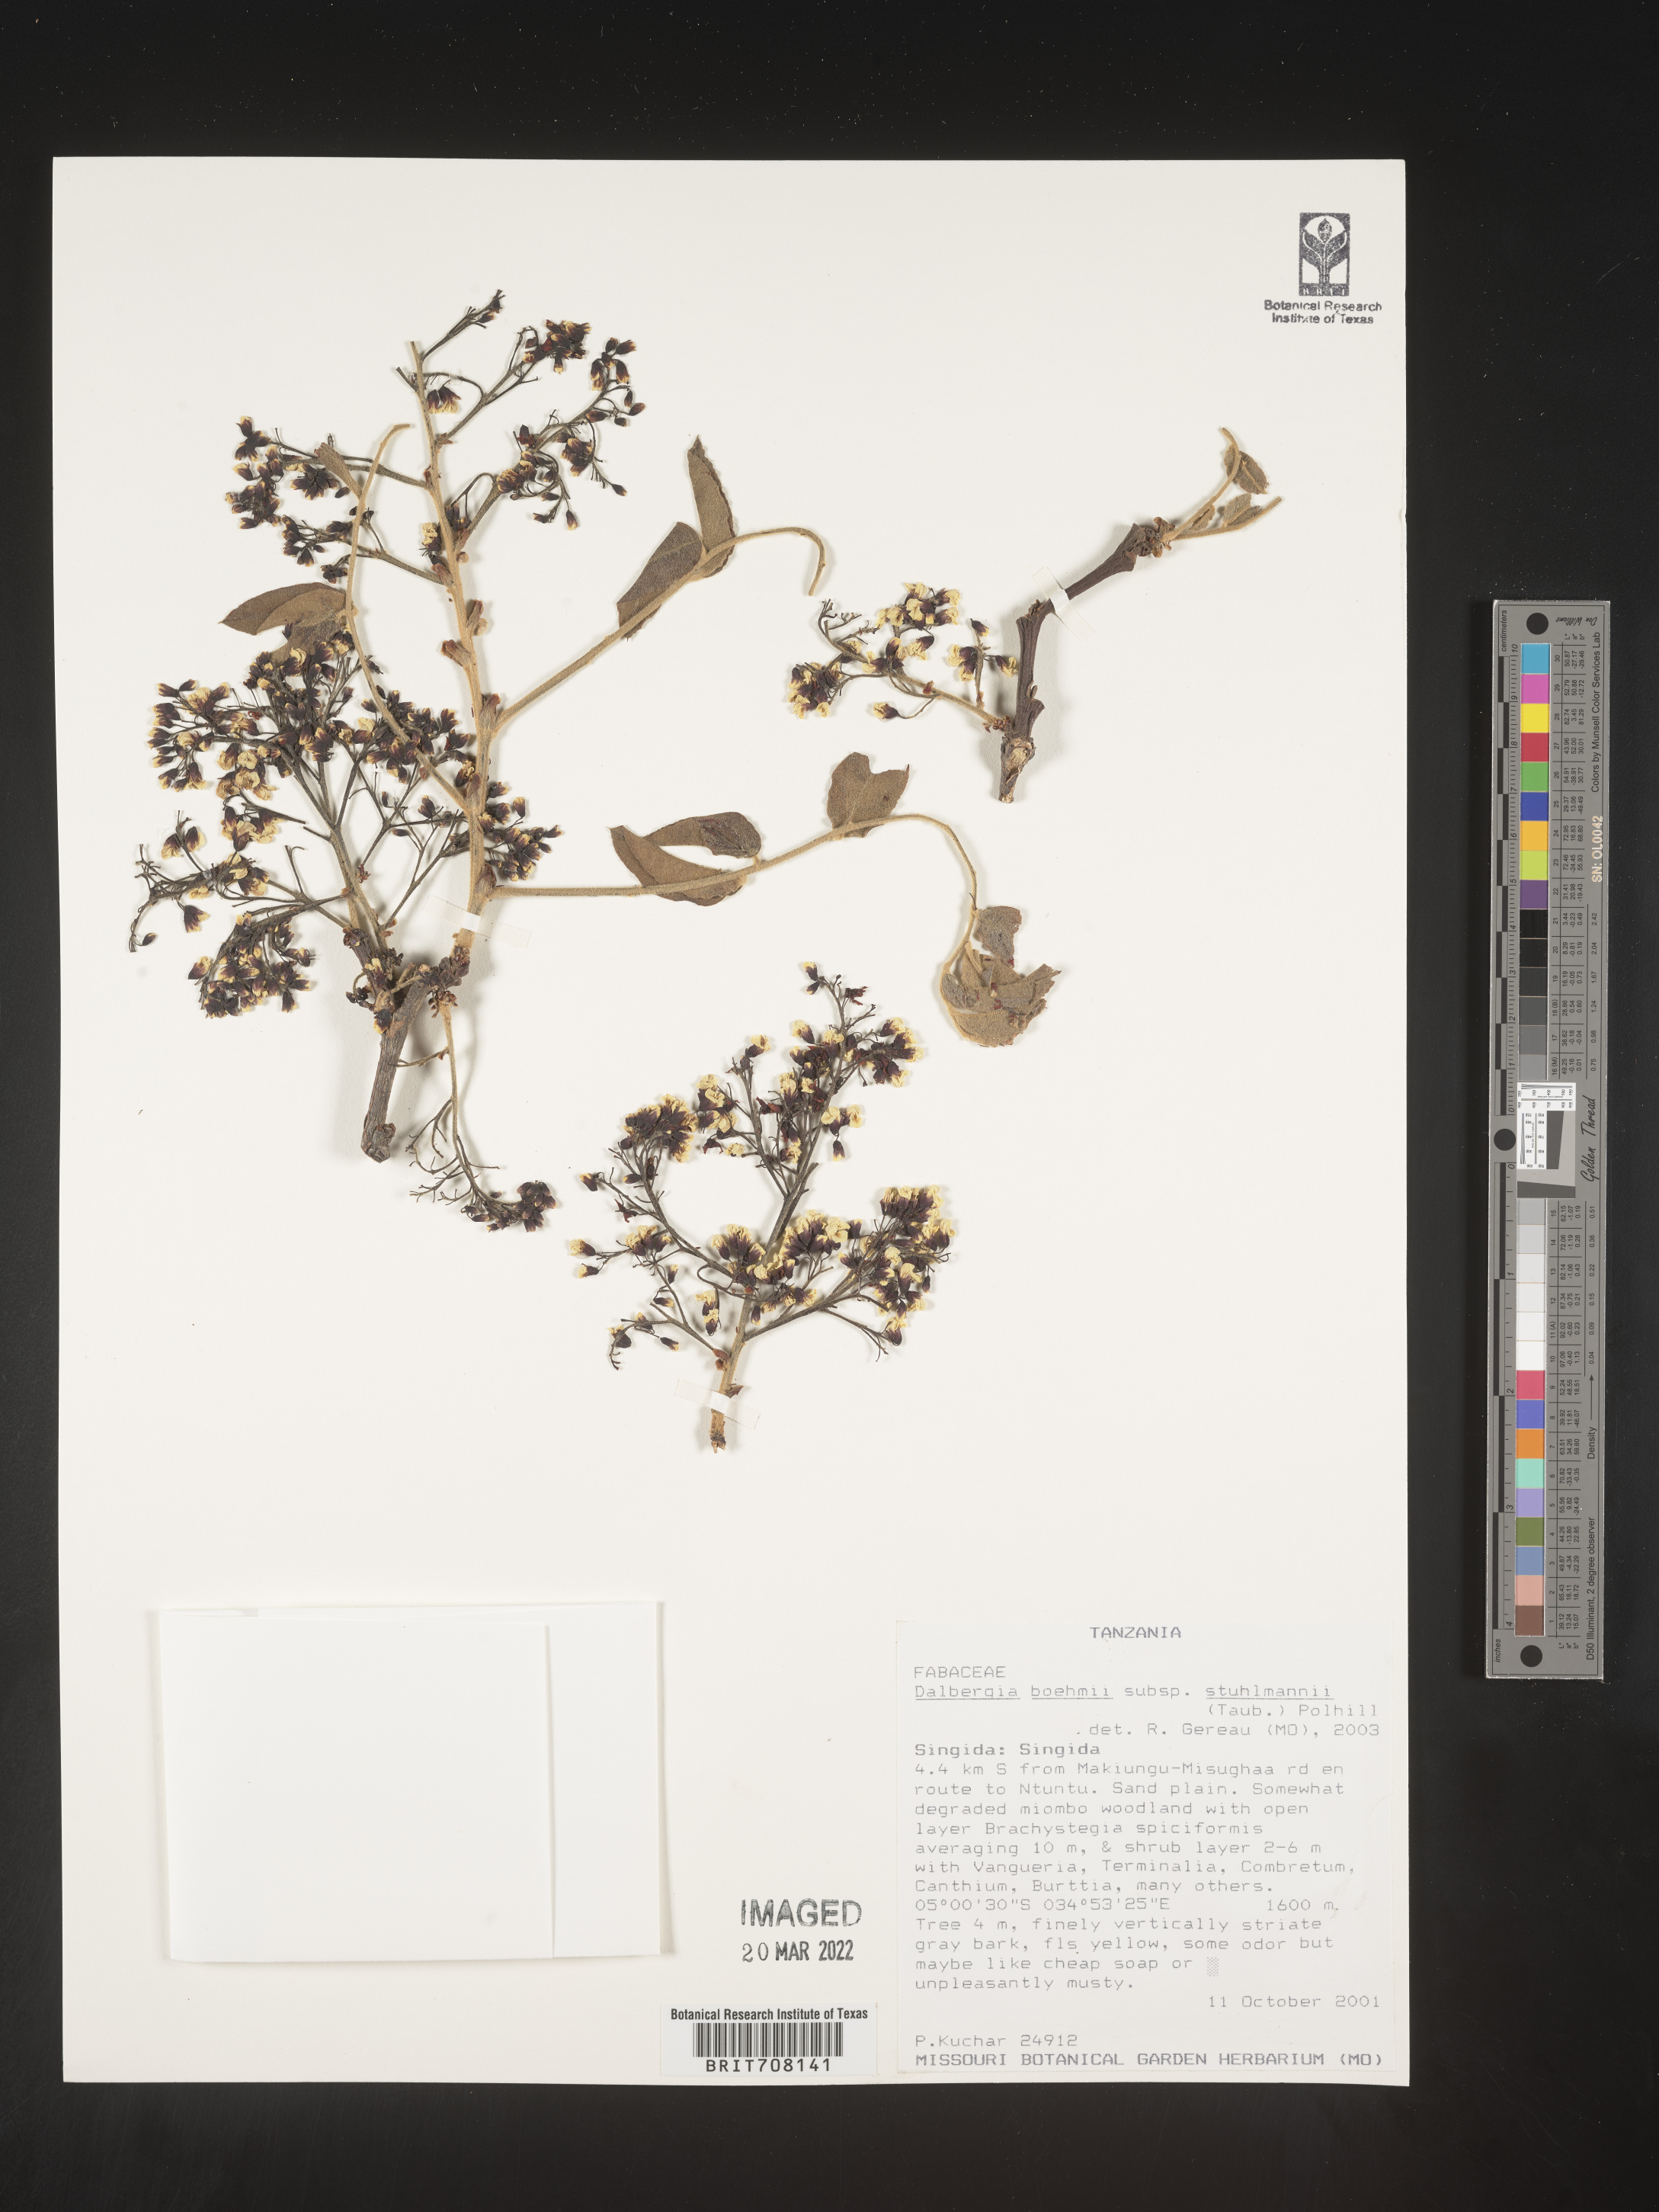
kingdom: Plantae
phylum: Tracheophyta
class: Magnoliopsida
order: Fabales
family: Fabaceae
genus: Dalbergia
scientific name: Dalbergia
